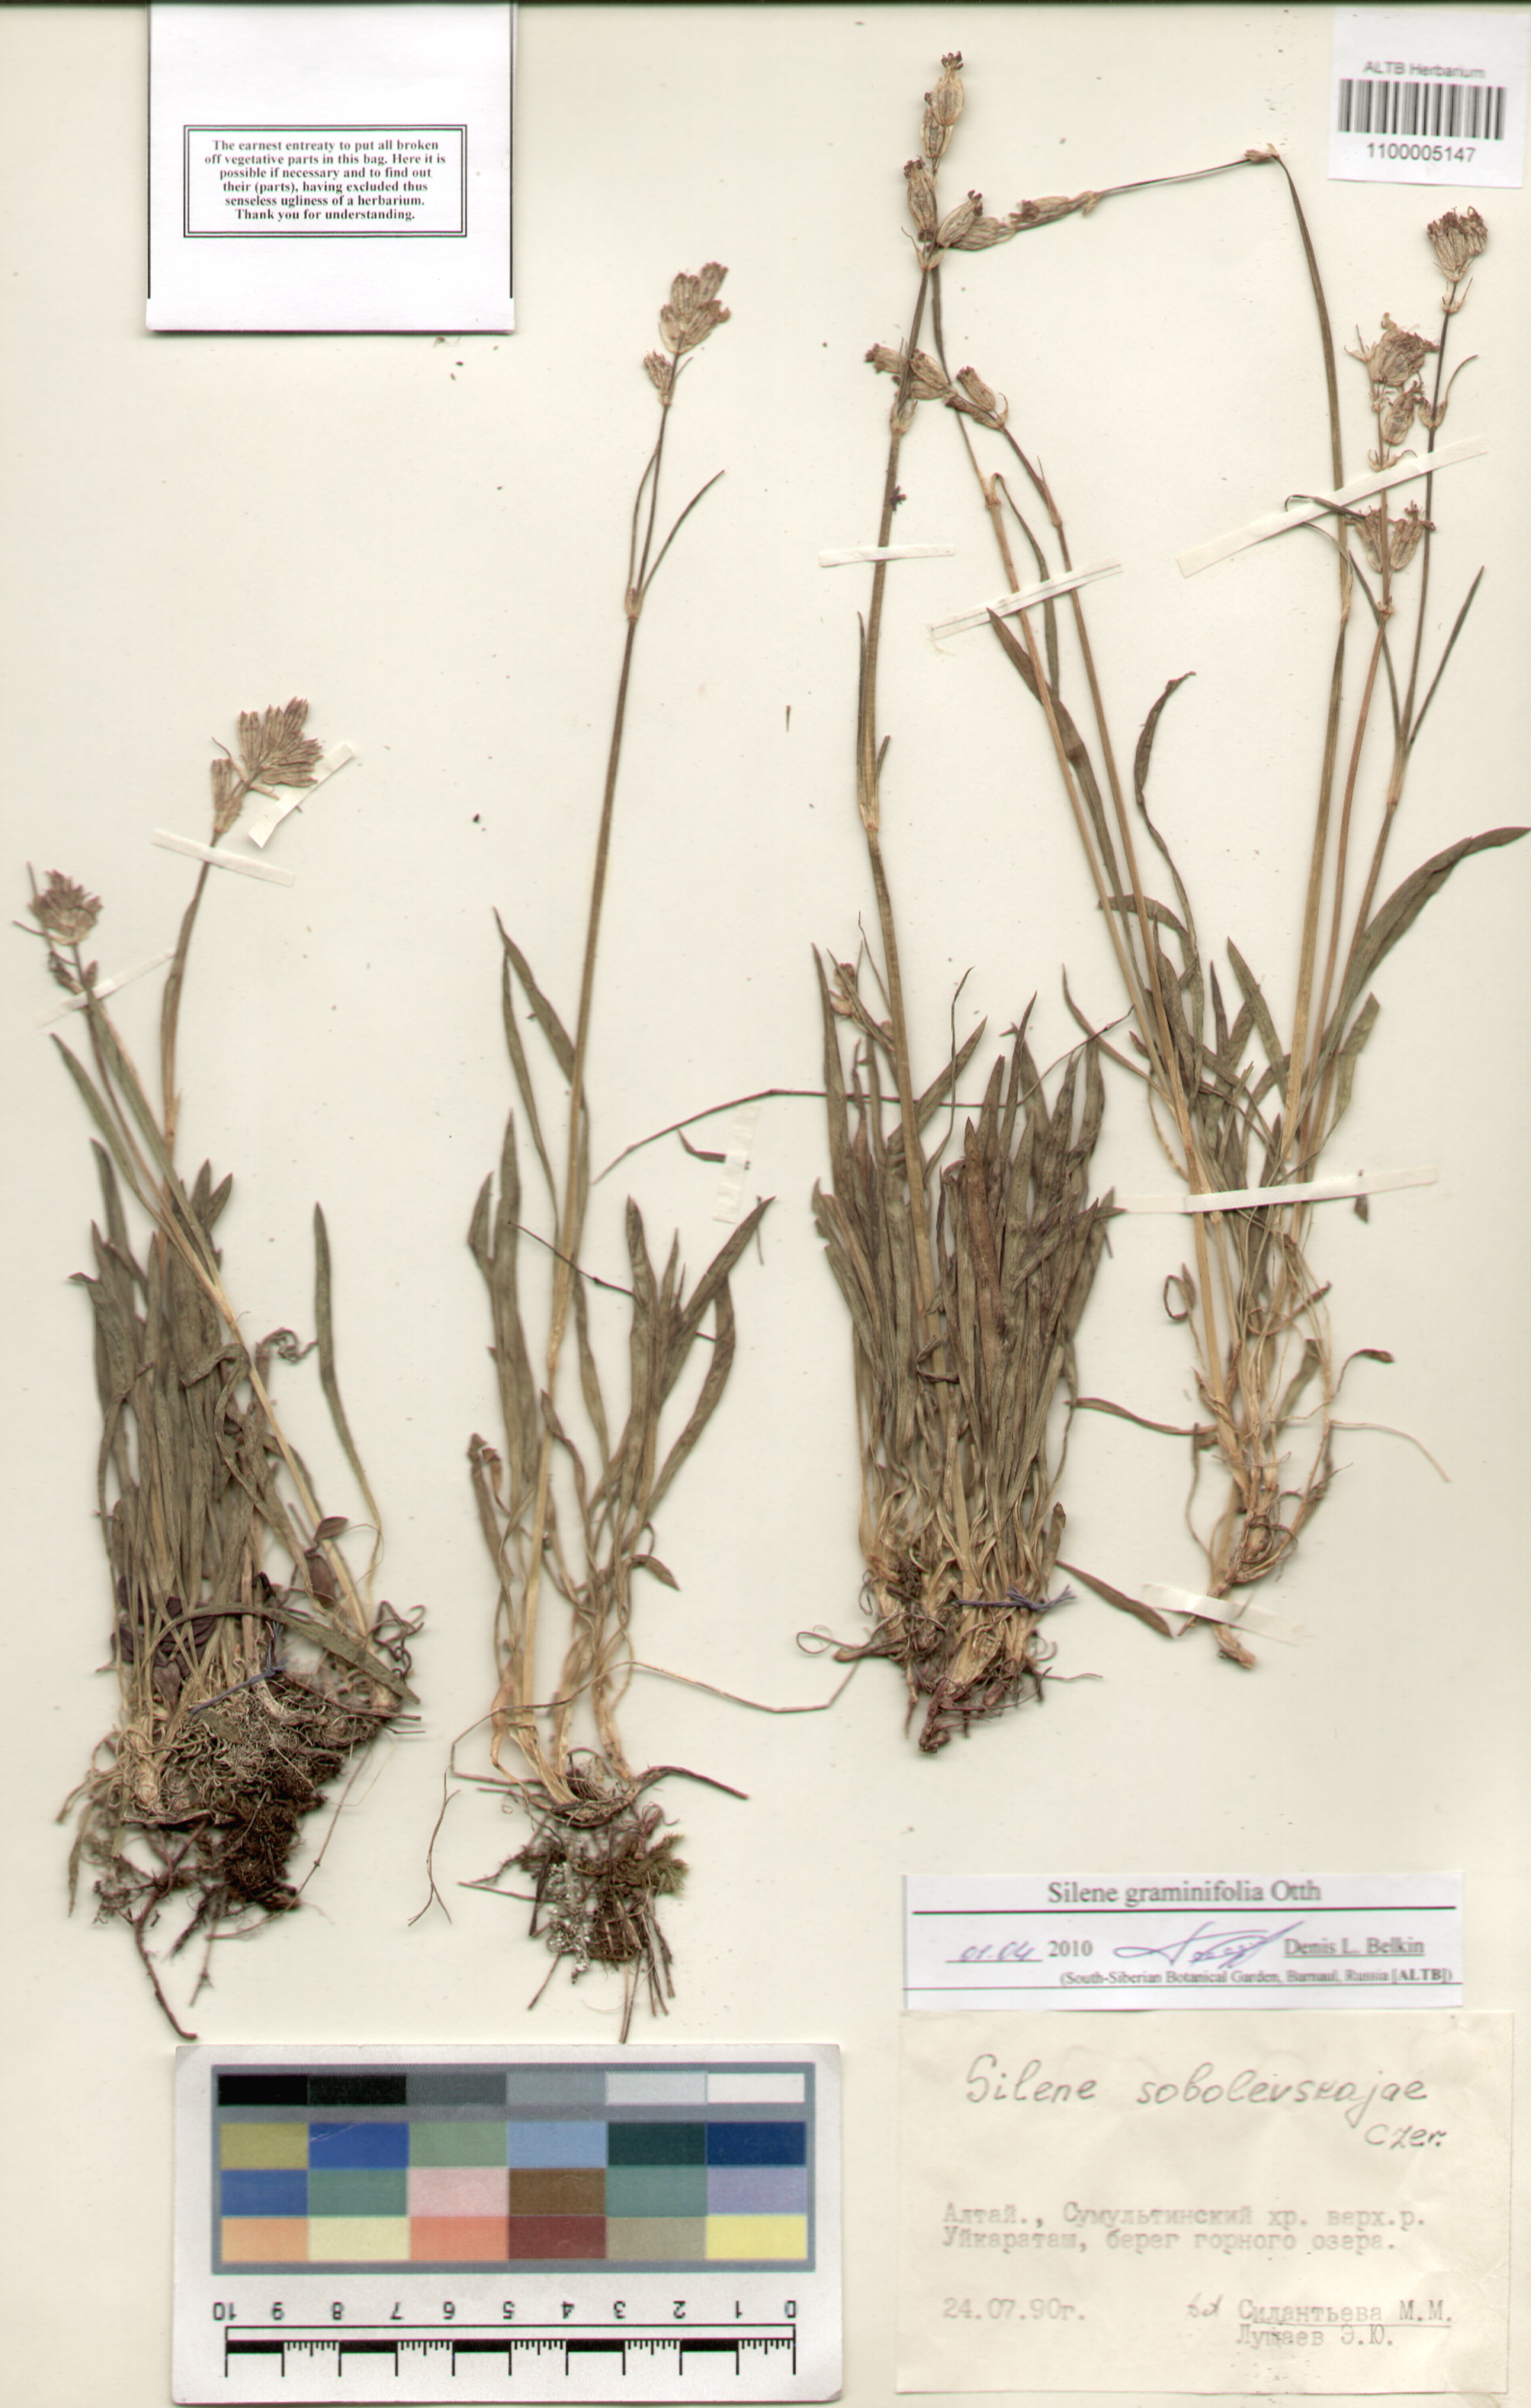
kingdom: Plantae
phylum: Tracheophyta
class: Magnoliopsida
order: Caryophyllales
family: Caryophyllaceae
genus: Silene
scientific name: Silene graminifolia
